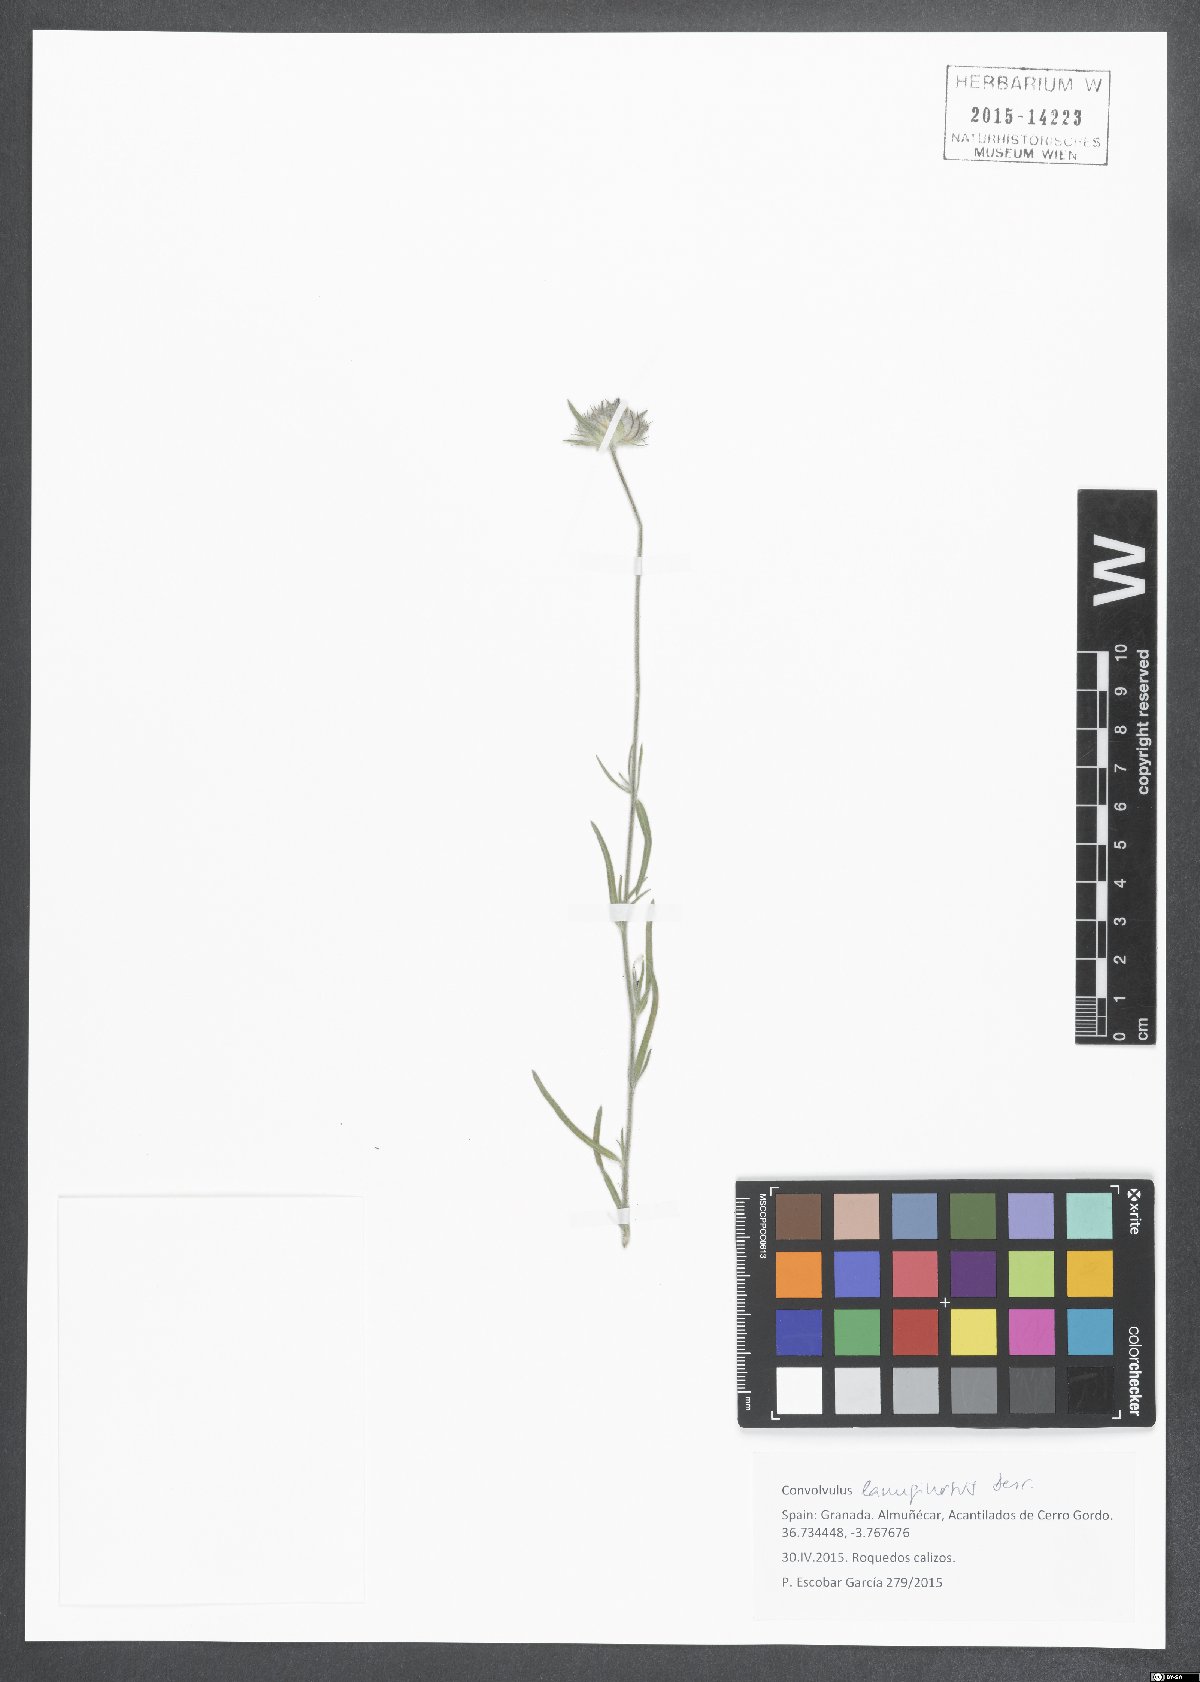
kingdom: Plantae
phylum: Tracheophyta
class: Magnoliopsida
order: Solanales
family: Convolvulaceae
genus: Convolvulus
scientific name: Convolvulus lanuginosus
